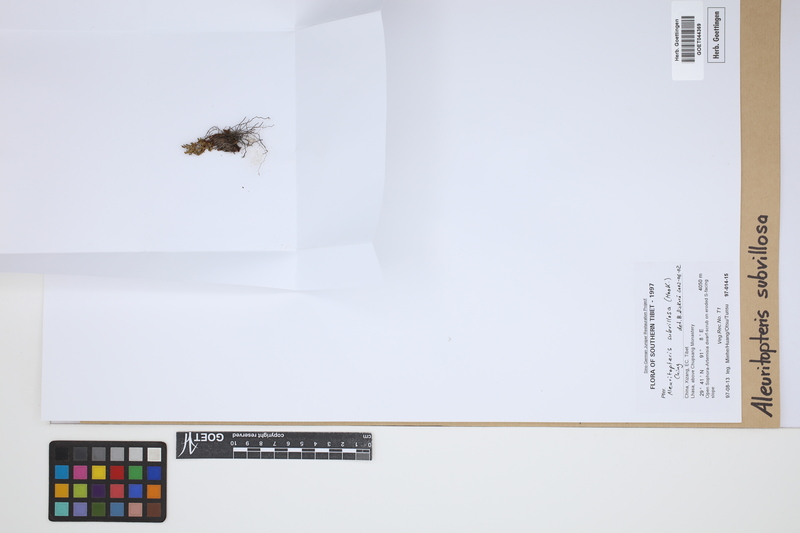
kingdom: Plantae
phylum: Tracheophyta
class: Polypodiopsida
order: Polypodiales
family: Pteridaceae
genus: Oeosporangium
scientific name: Oeosporangium subvillosum
